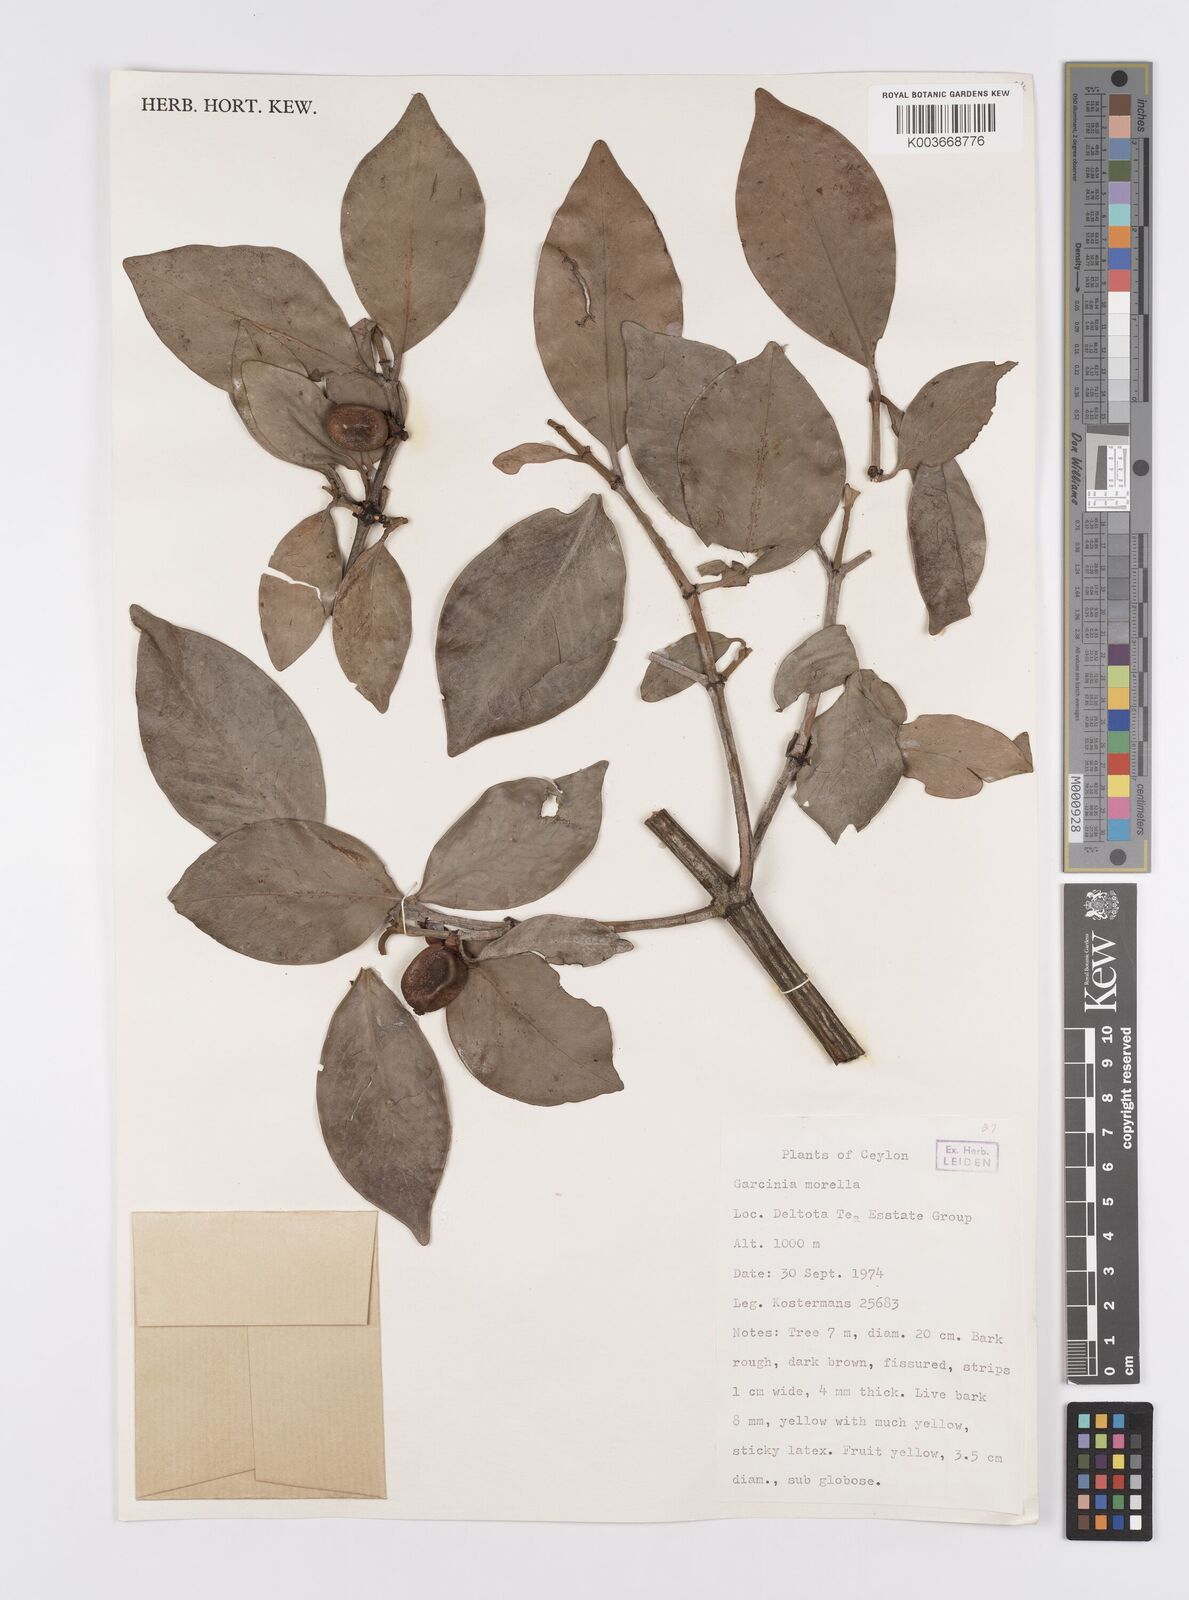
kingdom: Plantae
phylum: Tracheophyta
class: Magnoliopsida
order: Malpighiales
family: Clusiaceae
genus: Garcinia
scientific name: Garcinia morella
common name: Indian gamboge-tree
